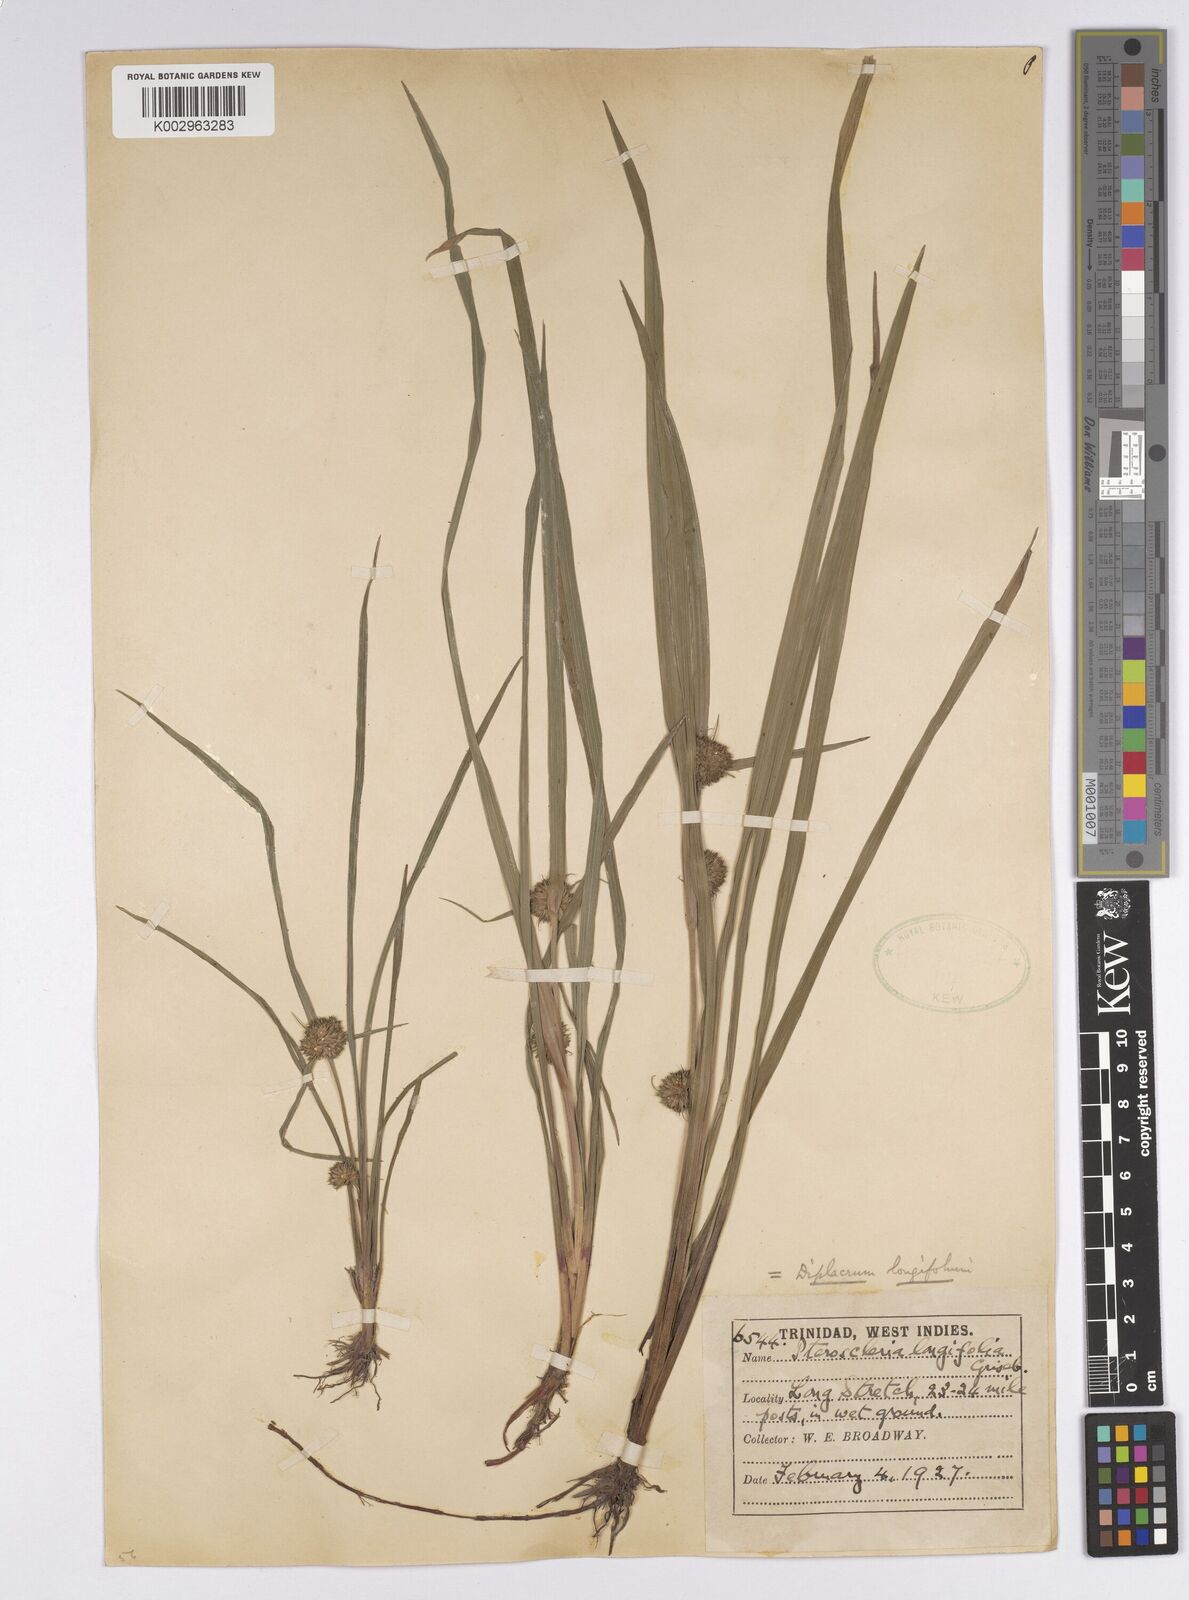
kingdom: Plantae
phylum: Tracheophyta
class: Liliopsida
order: Poales
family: Cyperaceae
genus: Diplacrum
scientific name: Diplacrum capitatum
